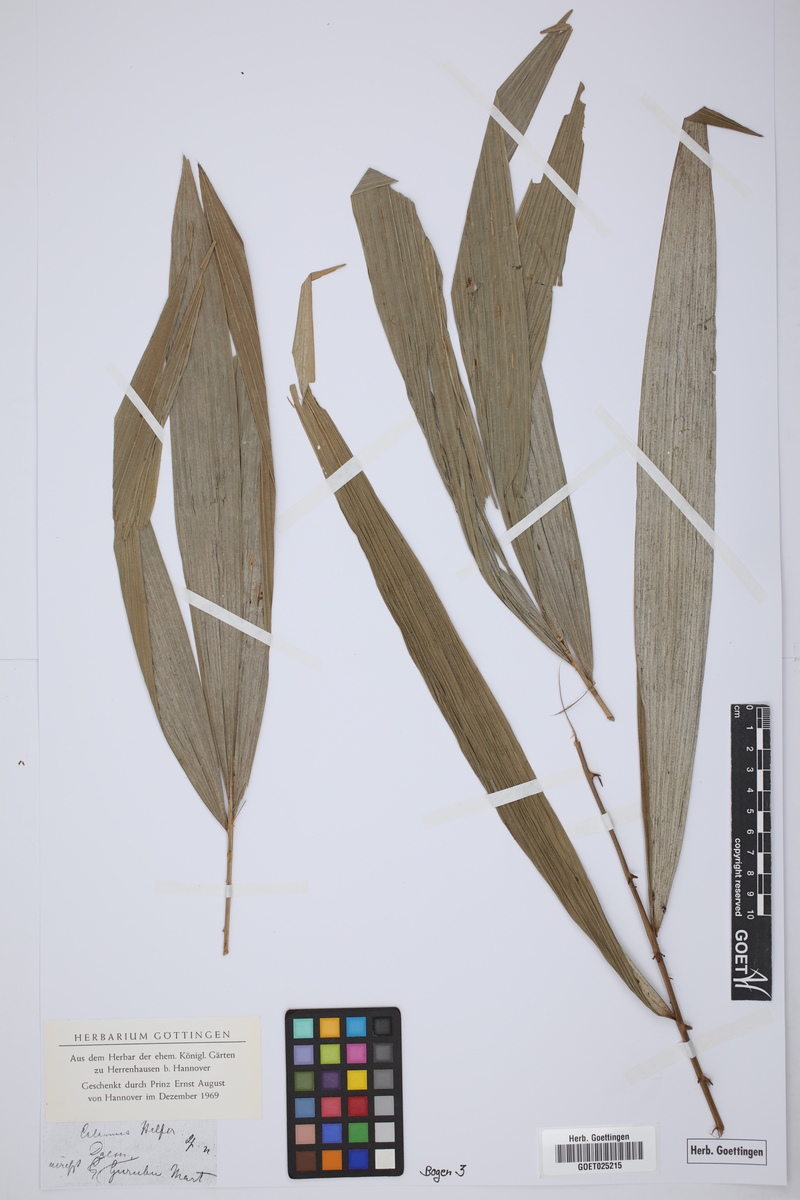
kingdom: Plantae
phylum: Tracheophyta
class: Liliopsida
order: Arecales
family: Arecaceae
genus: Calamus
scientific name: Calamus
